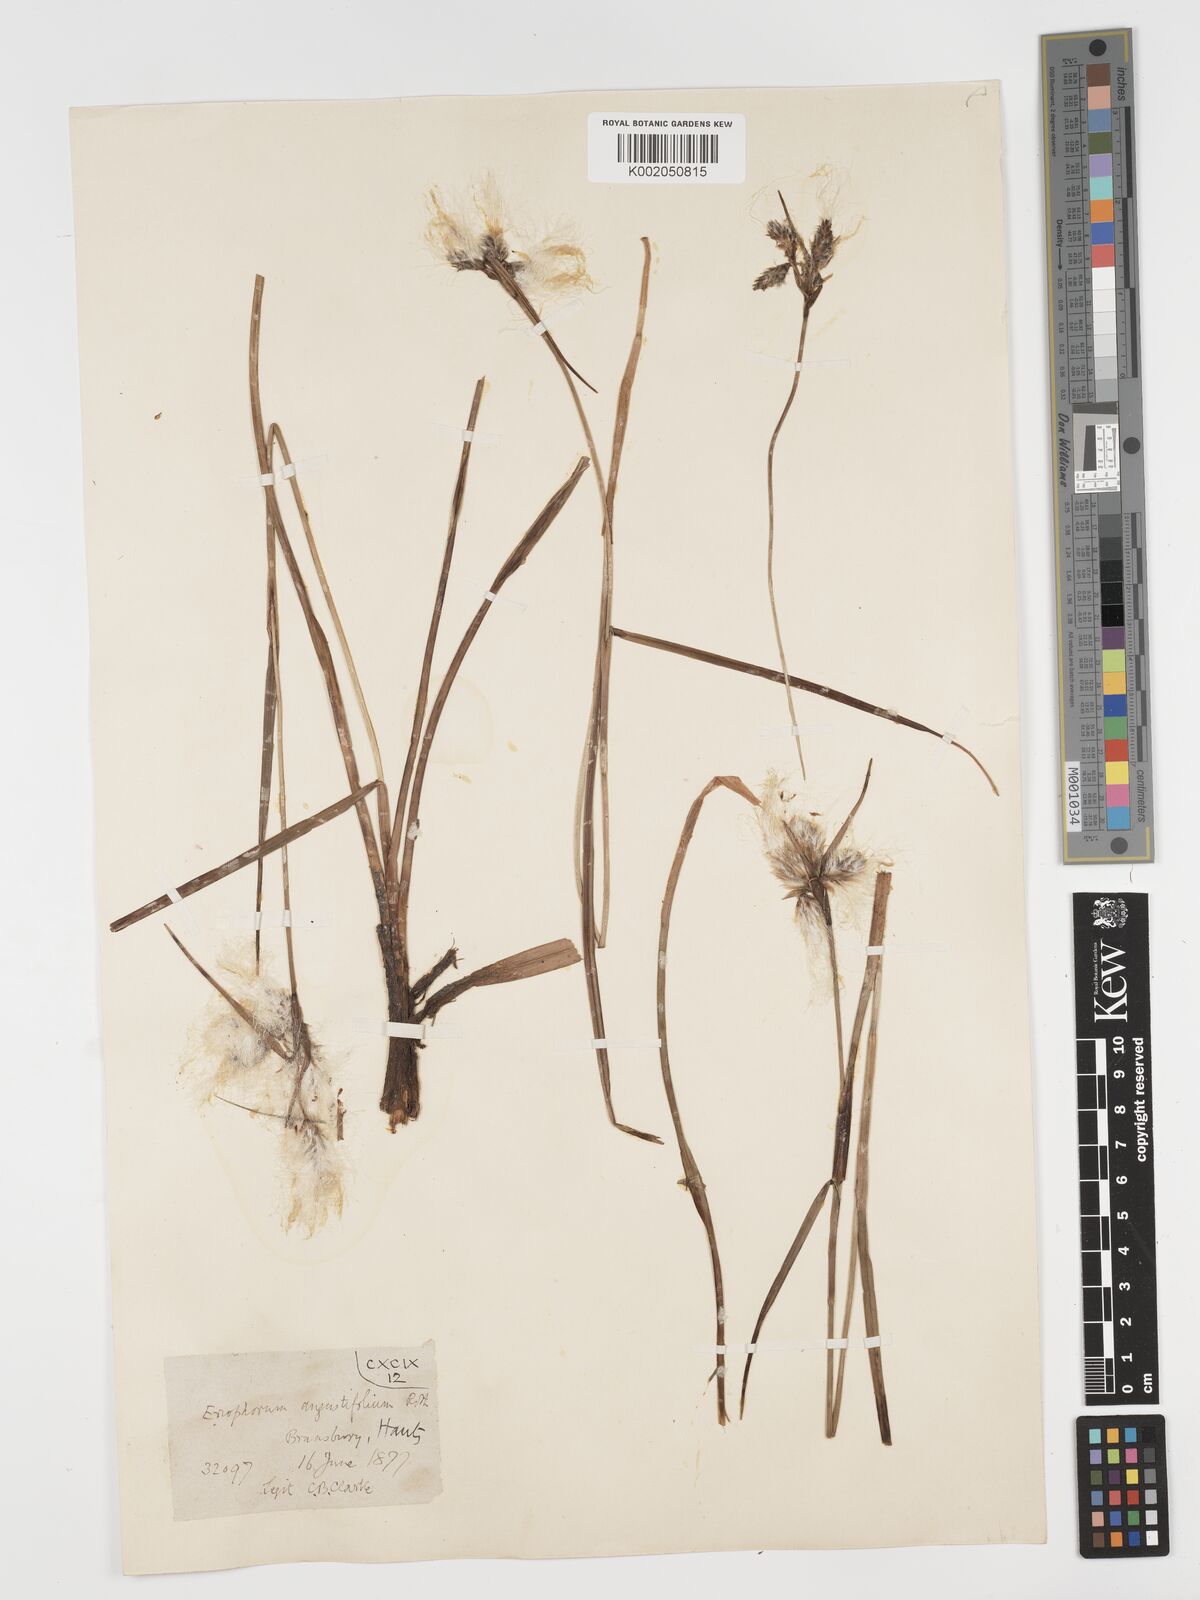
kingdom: Plantae
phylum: Tracheophyta
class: Liliopsida
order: Poales
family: Cyperaceae
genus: Eriophorum
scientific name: Eriophorum angustifolium
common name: Common cottongrass
